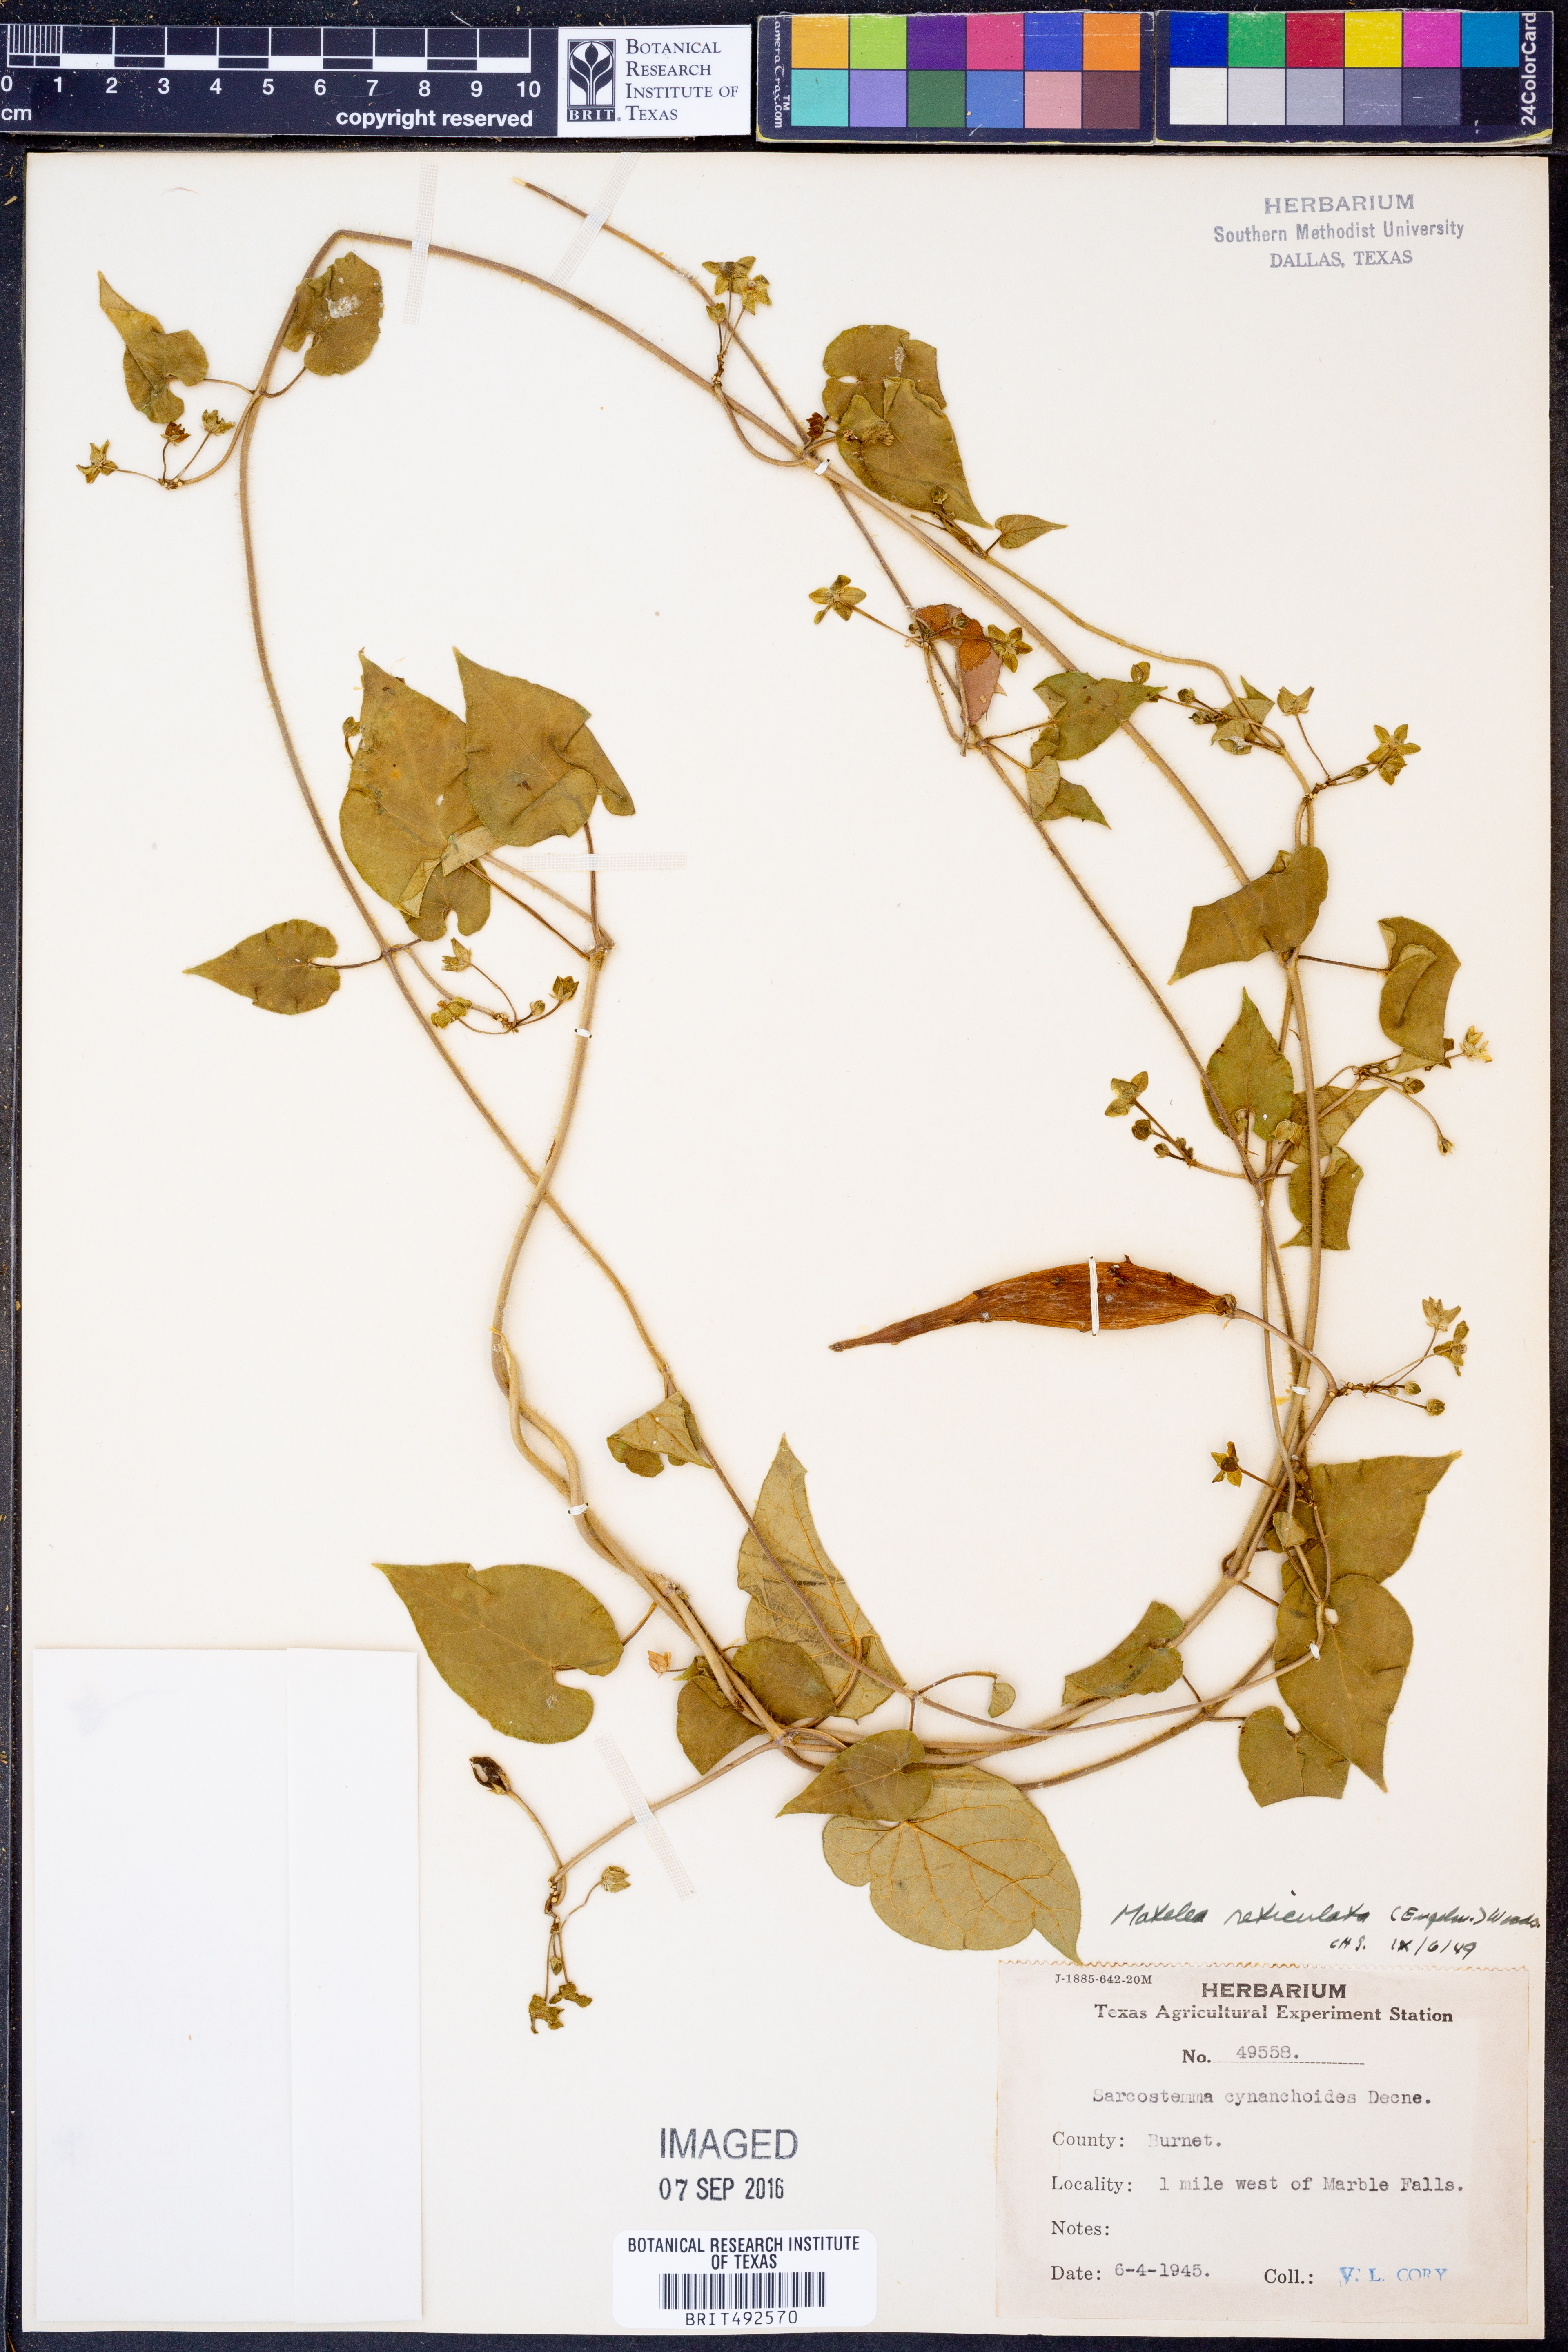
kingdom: Plantae
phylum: Tracheophyta
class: Magnoliopsida
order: Gentianales
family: Apocynaceae
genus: Dictyanthus
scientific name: Dictyanthus reticulatus
